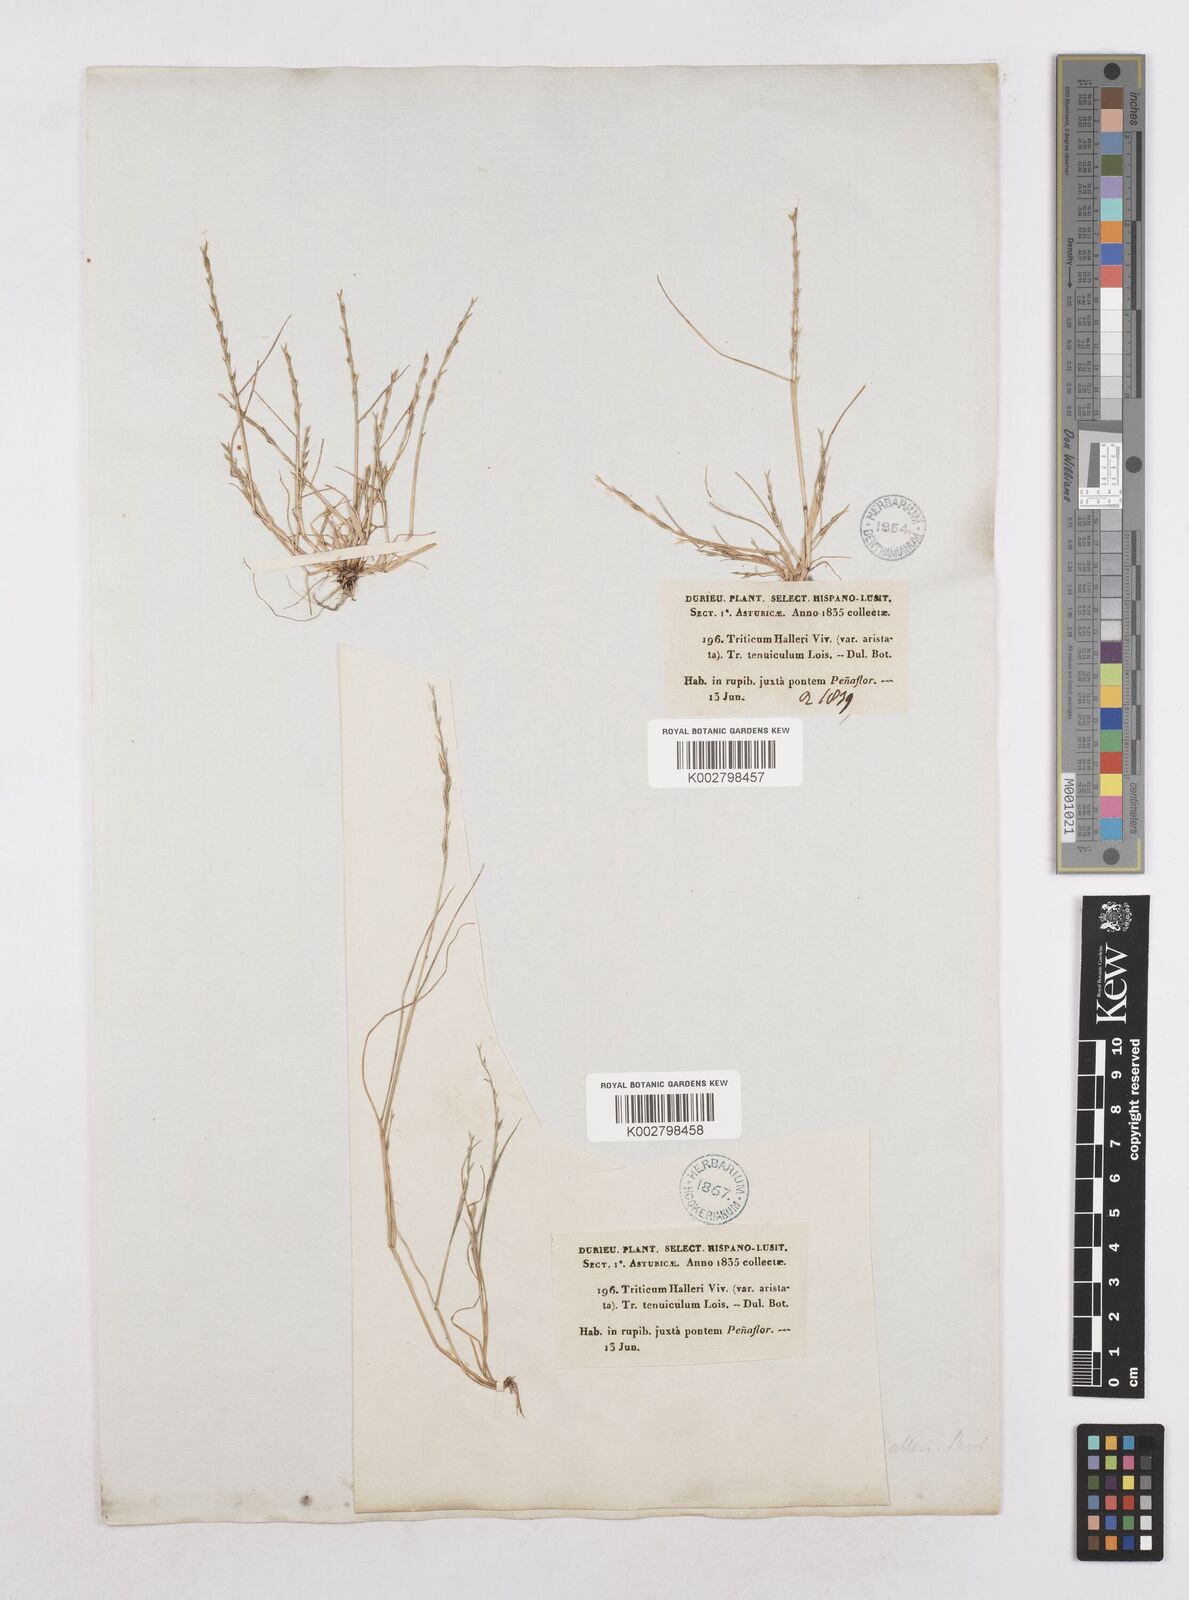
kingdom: Plantae
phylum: Tracheophyta
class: Liliopsida
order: Poales
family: Poaceae
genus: Festuca
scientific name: Festuca lachenalii
